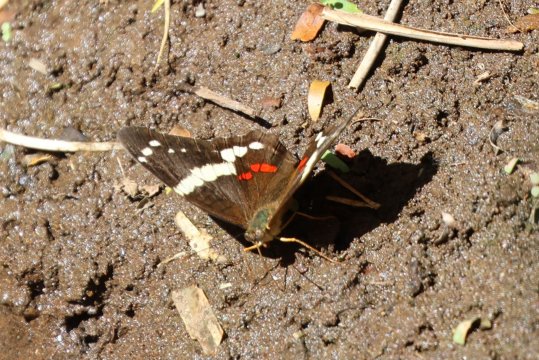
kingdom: Animalia
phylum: Arthropoda
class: Insecta
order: Lepidoptera
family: Nymphalidae
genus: Anartia
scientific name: Anartia fatima
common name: Banded Peacock
